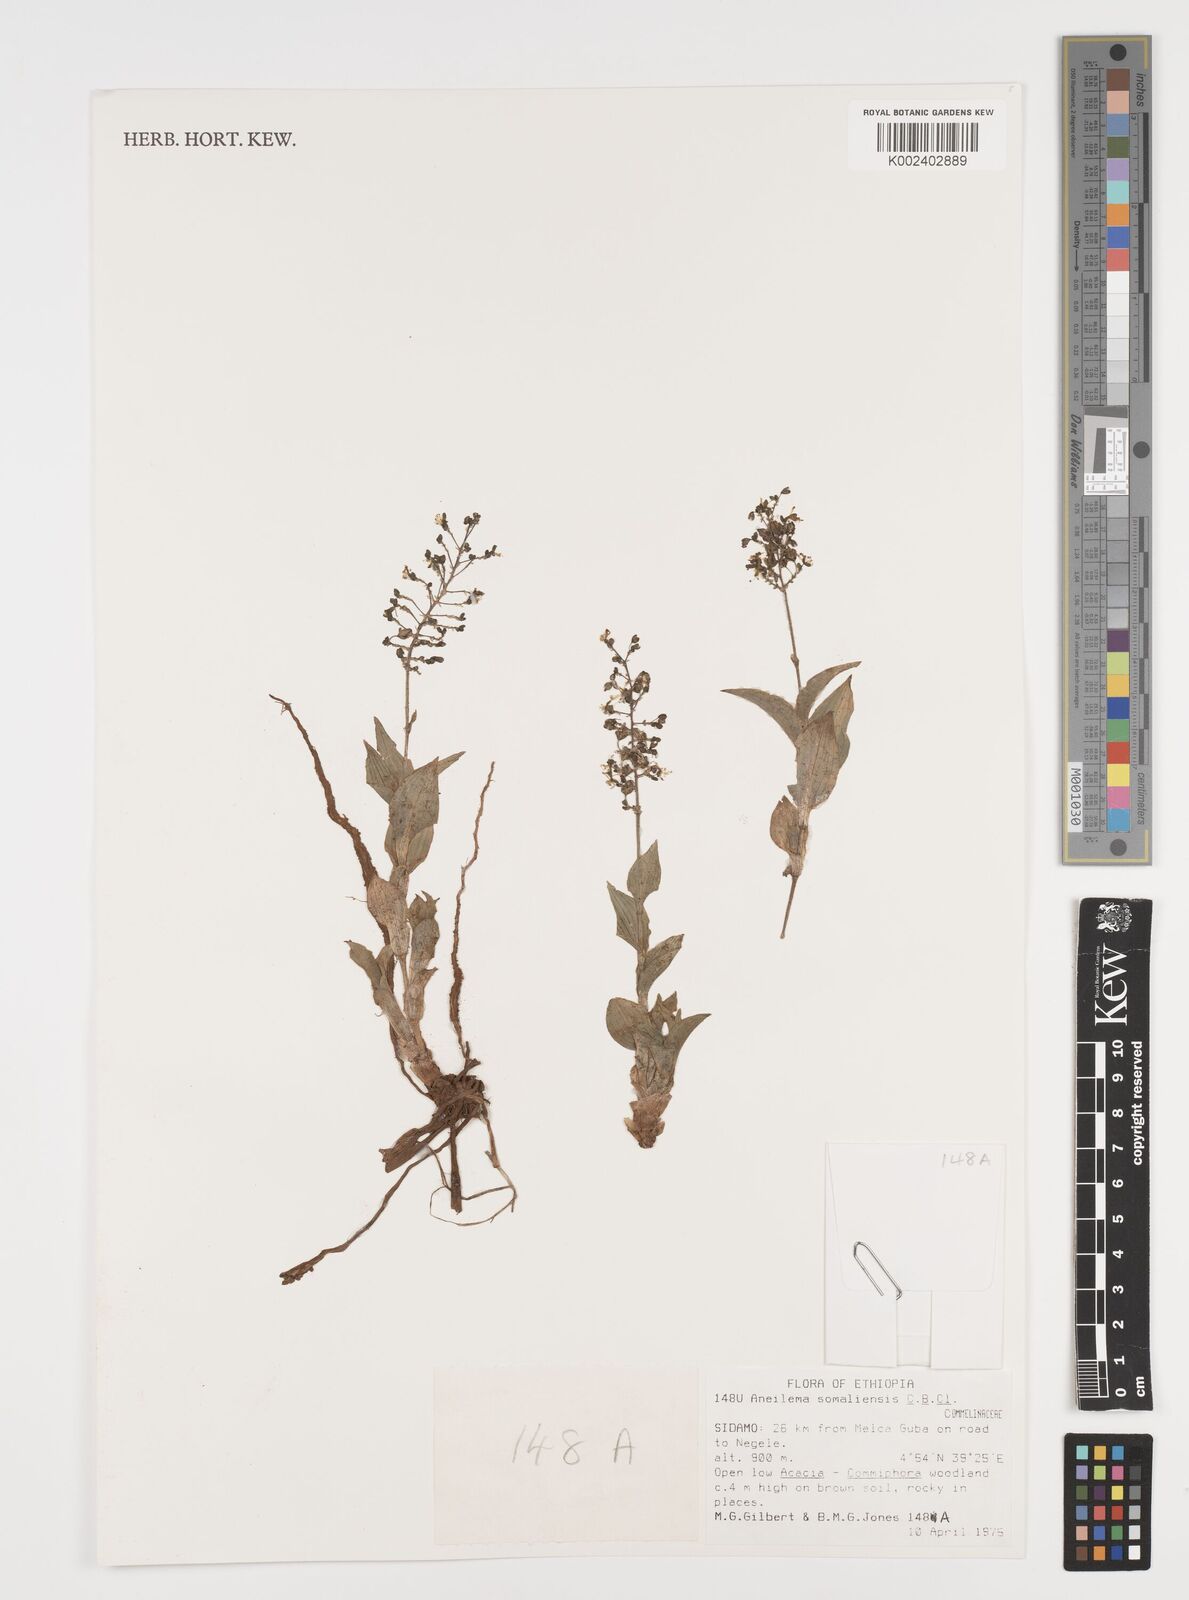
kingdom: Plantae
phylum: Tracheophyta
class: Liliopsida
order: Commelinales
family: Commelinaceae
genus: Aneilema
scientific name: Aneilema somaliense
